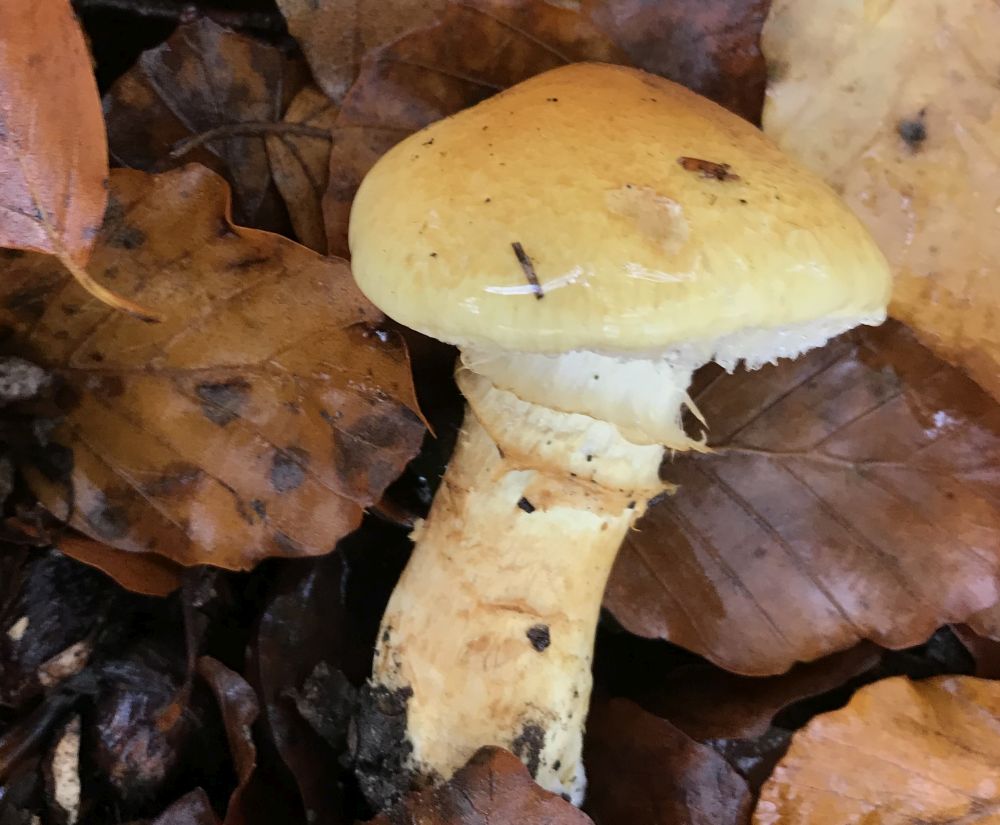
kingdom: Fungi
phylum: Basidiomycota
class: Agaricomycetes
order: Agaricales
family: Cortinariaceae
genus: Phlegmacium
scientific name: Phlegmacium triumphans
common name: gulbæltet slørhat
